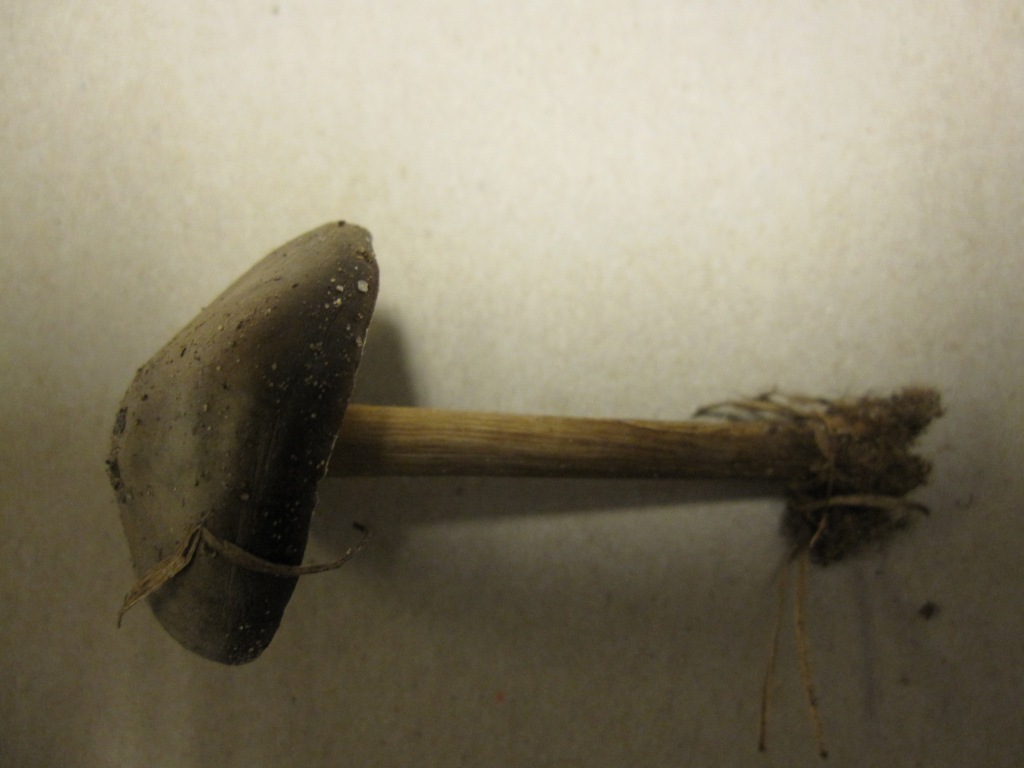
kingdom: Fungi
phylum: Basidiomycota
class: Agaricomycetes
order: Agaricales
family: Tricholomataceae
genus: Melanoleuca
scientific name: Melanoleuca polioleuca
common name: almindelig munkehat
